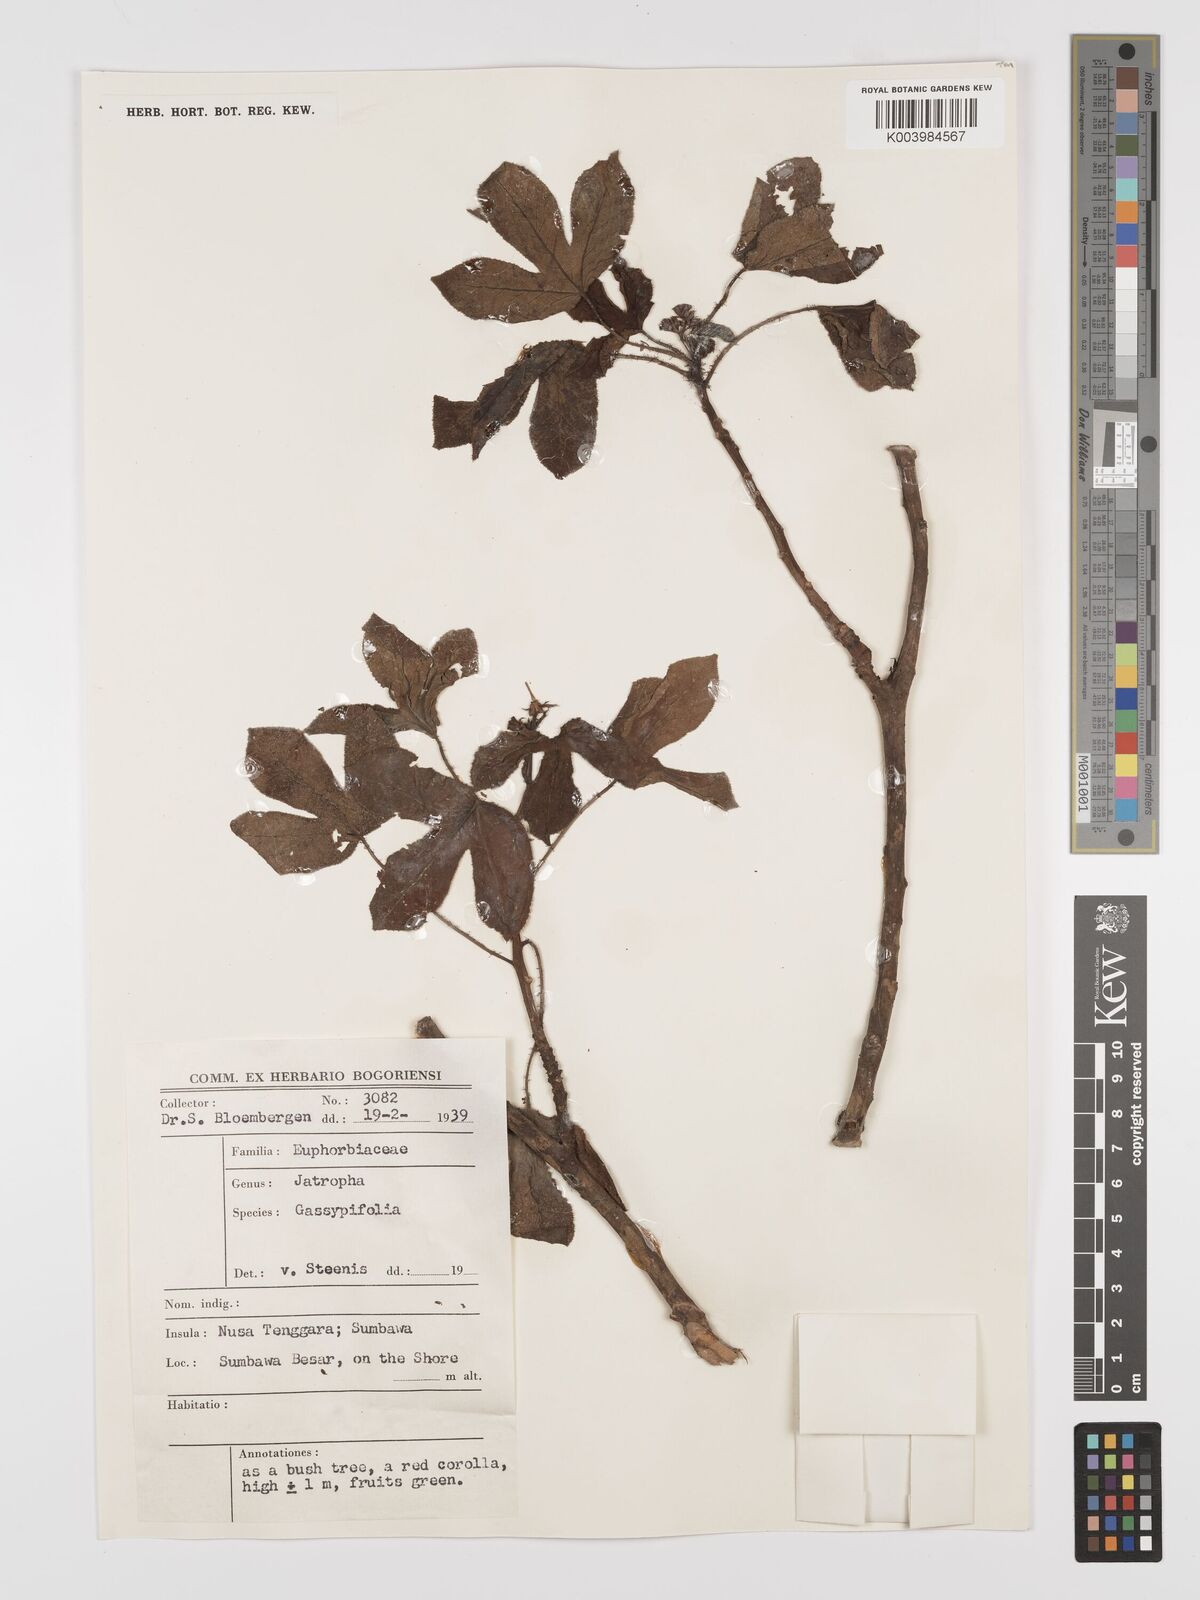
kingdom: Plantae
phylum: Tracheophyta
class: Magnoliopsida
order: Malpighiales
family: Euphorbiaceae
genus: Jatropha
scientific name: Jatropha gossypiifolia
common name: Bellyache bush
